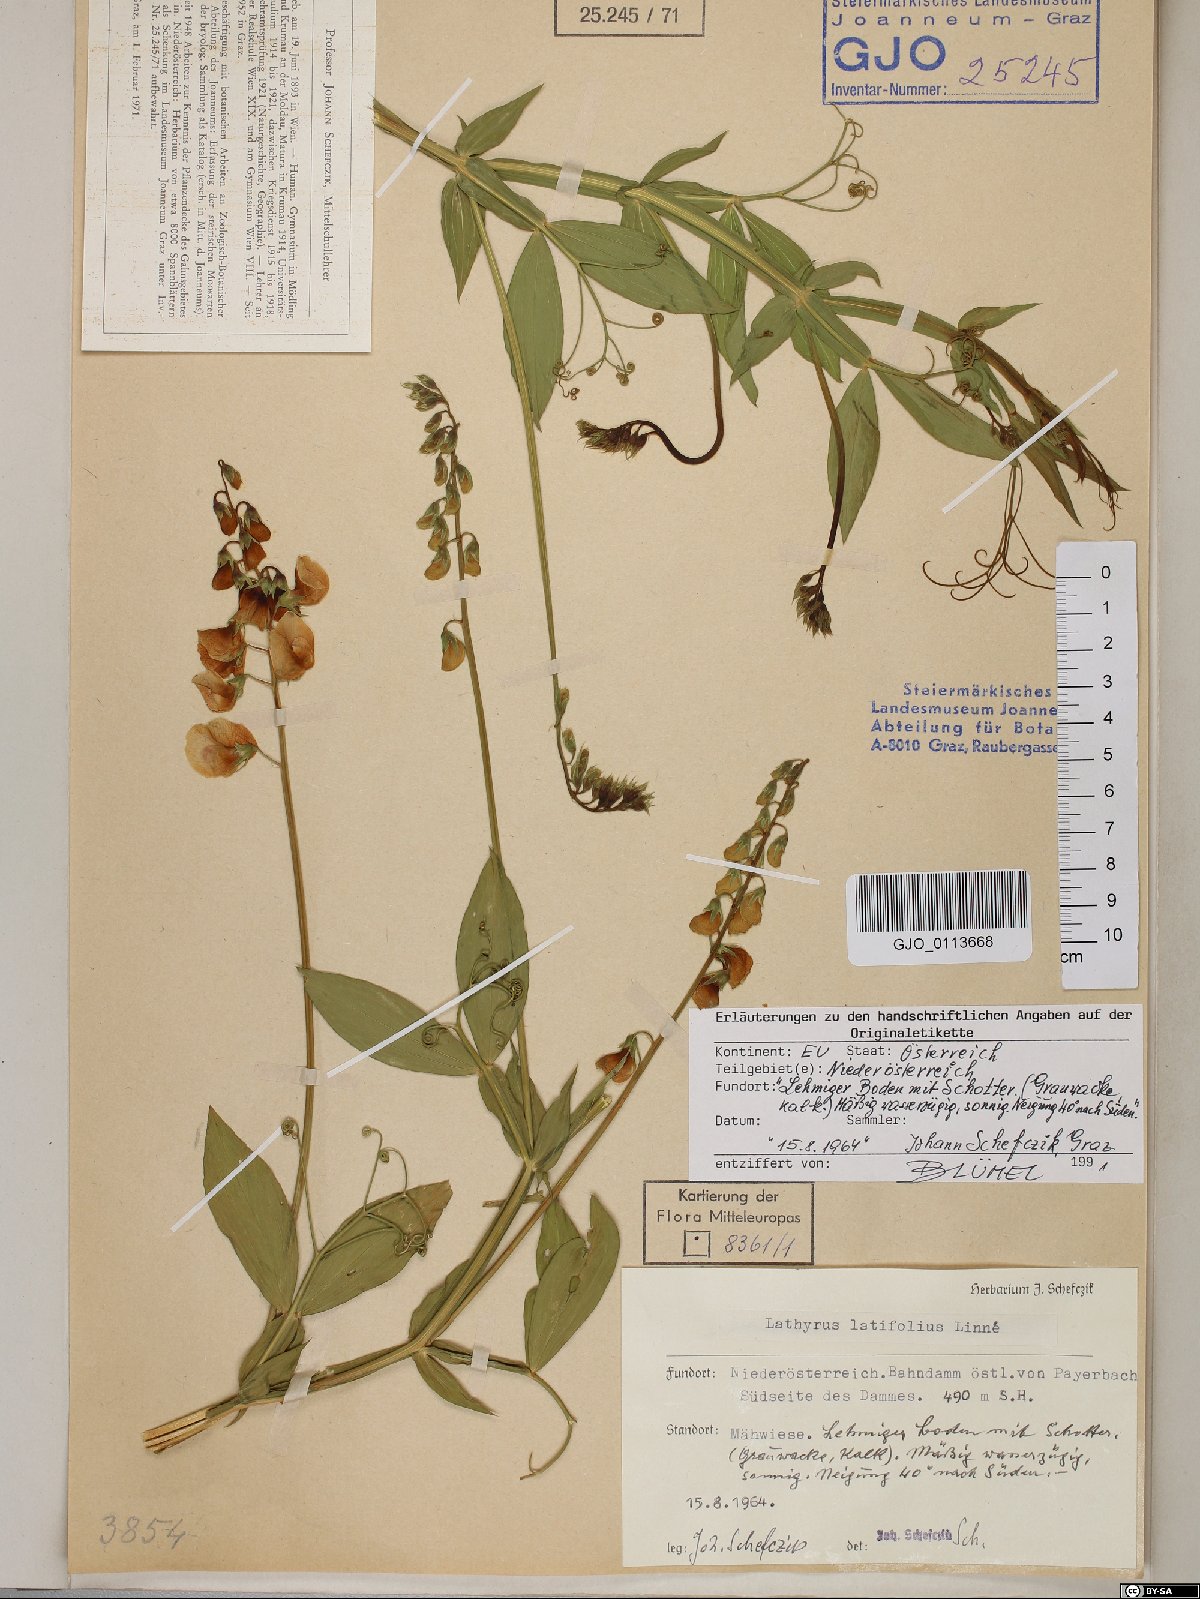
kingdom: Plantae
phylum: Tracheophyta
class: Magnoliopsida
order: Fabales
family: Fabaceae
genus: Lathyrus
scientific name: Lathyrus latifolius
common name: Perennial pea
